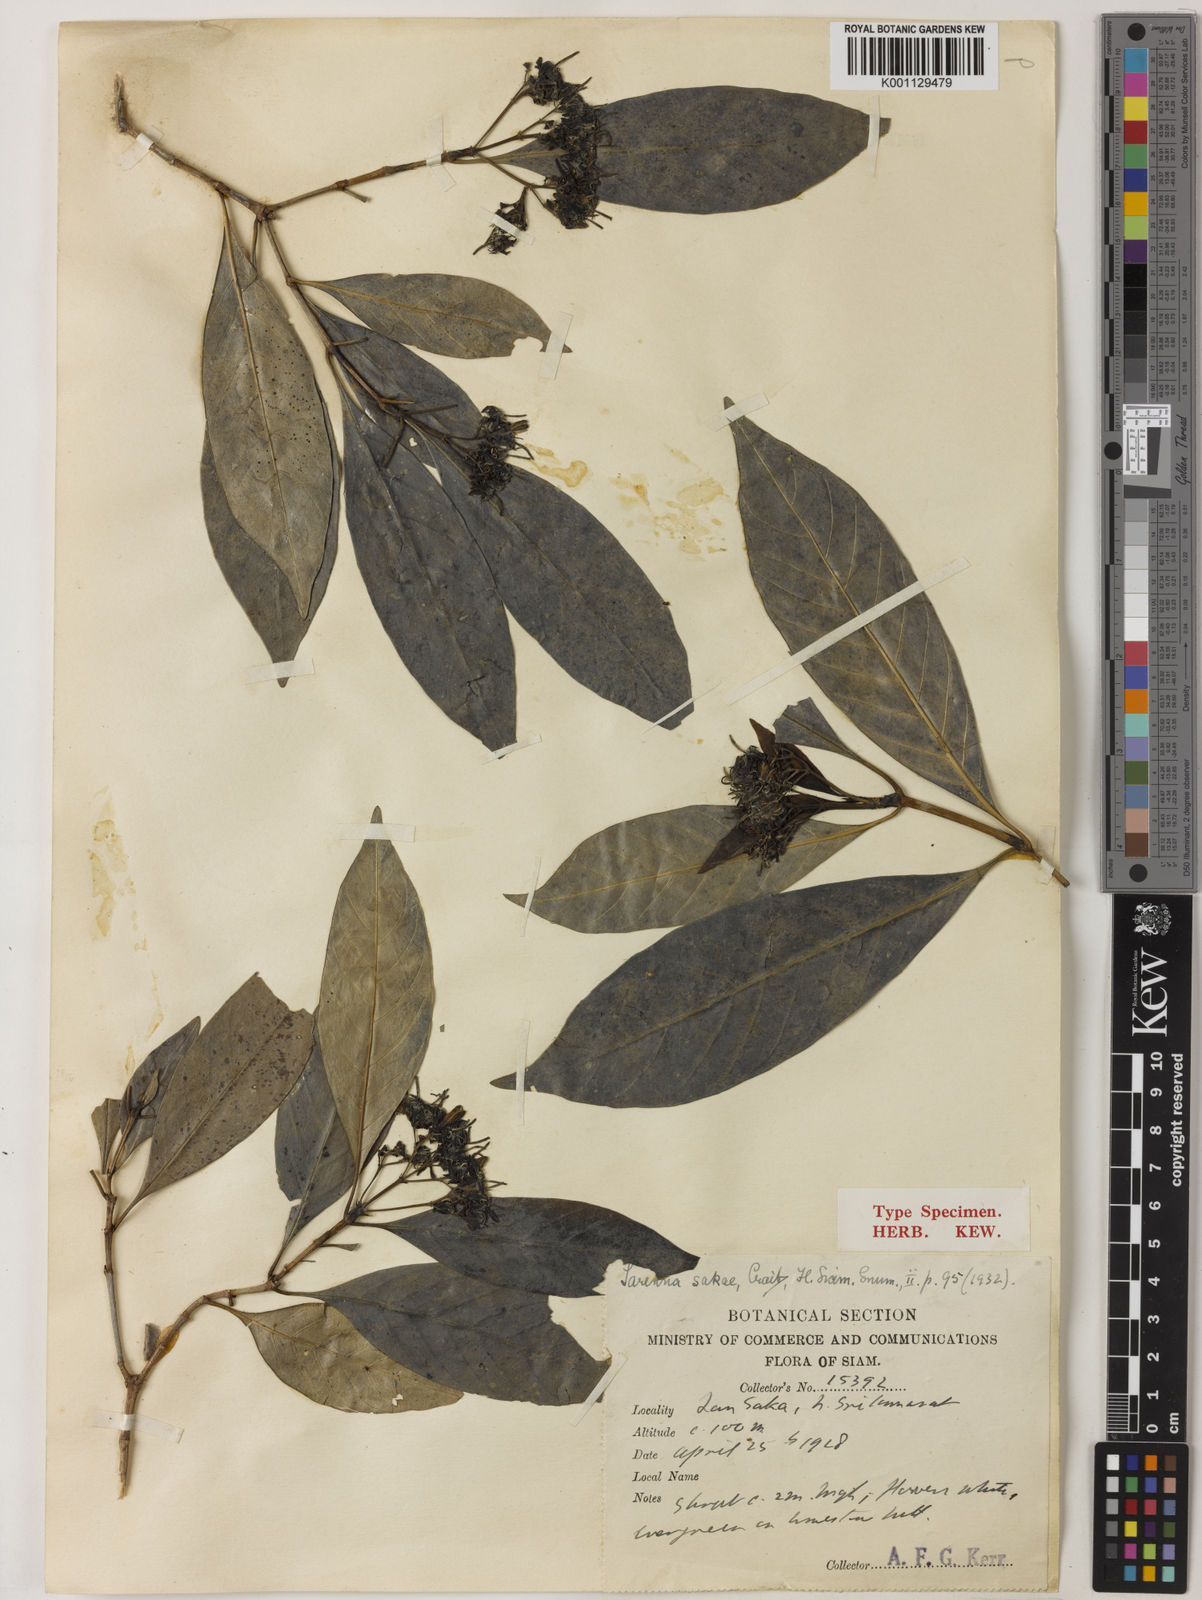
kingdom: Plantae
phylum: Tracheophyta
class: Magnoliopsida
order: Gentianales
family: Rubiaceae
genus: Tarenna
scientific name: Tarenna sakae
